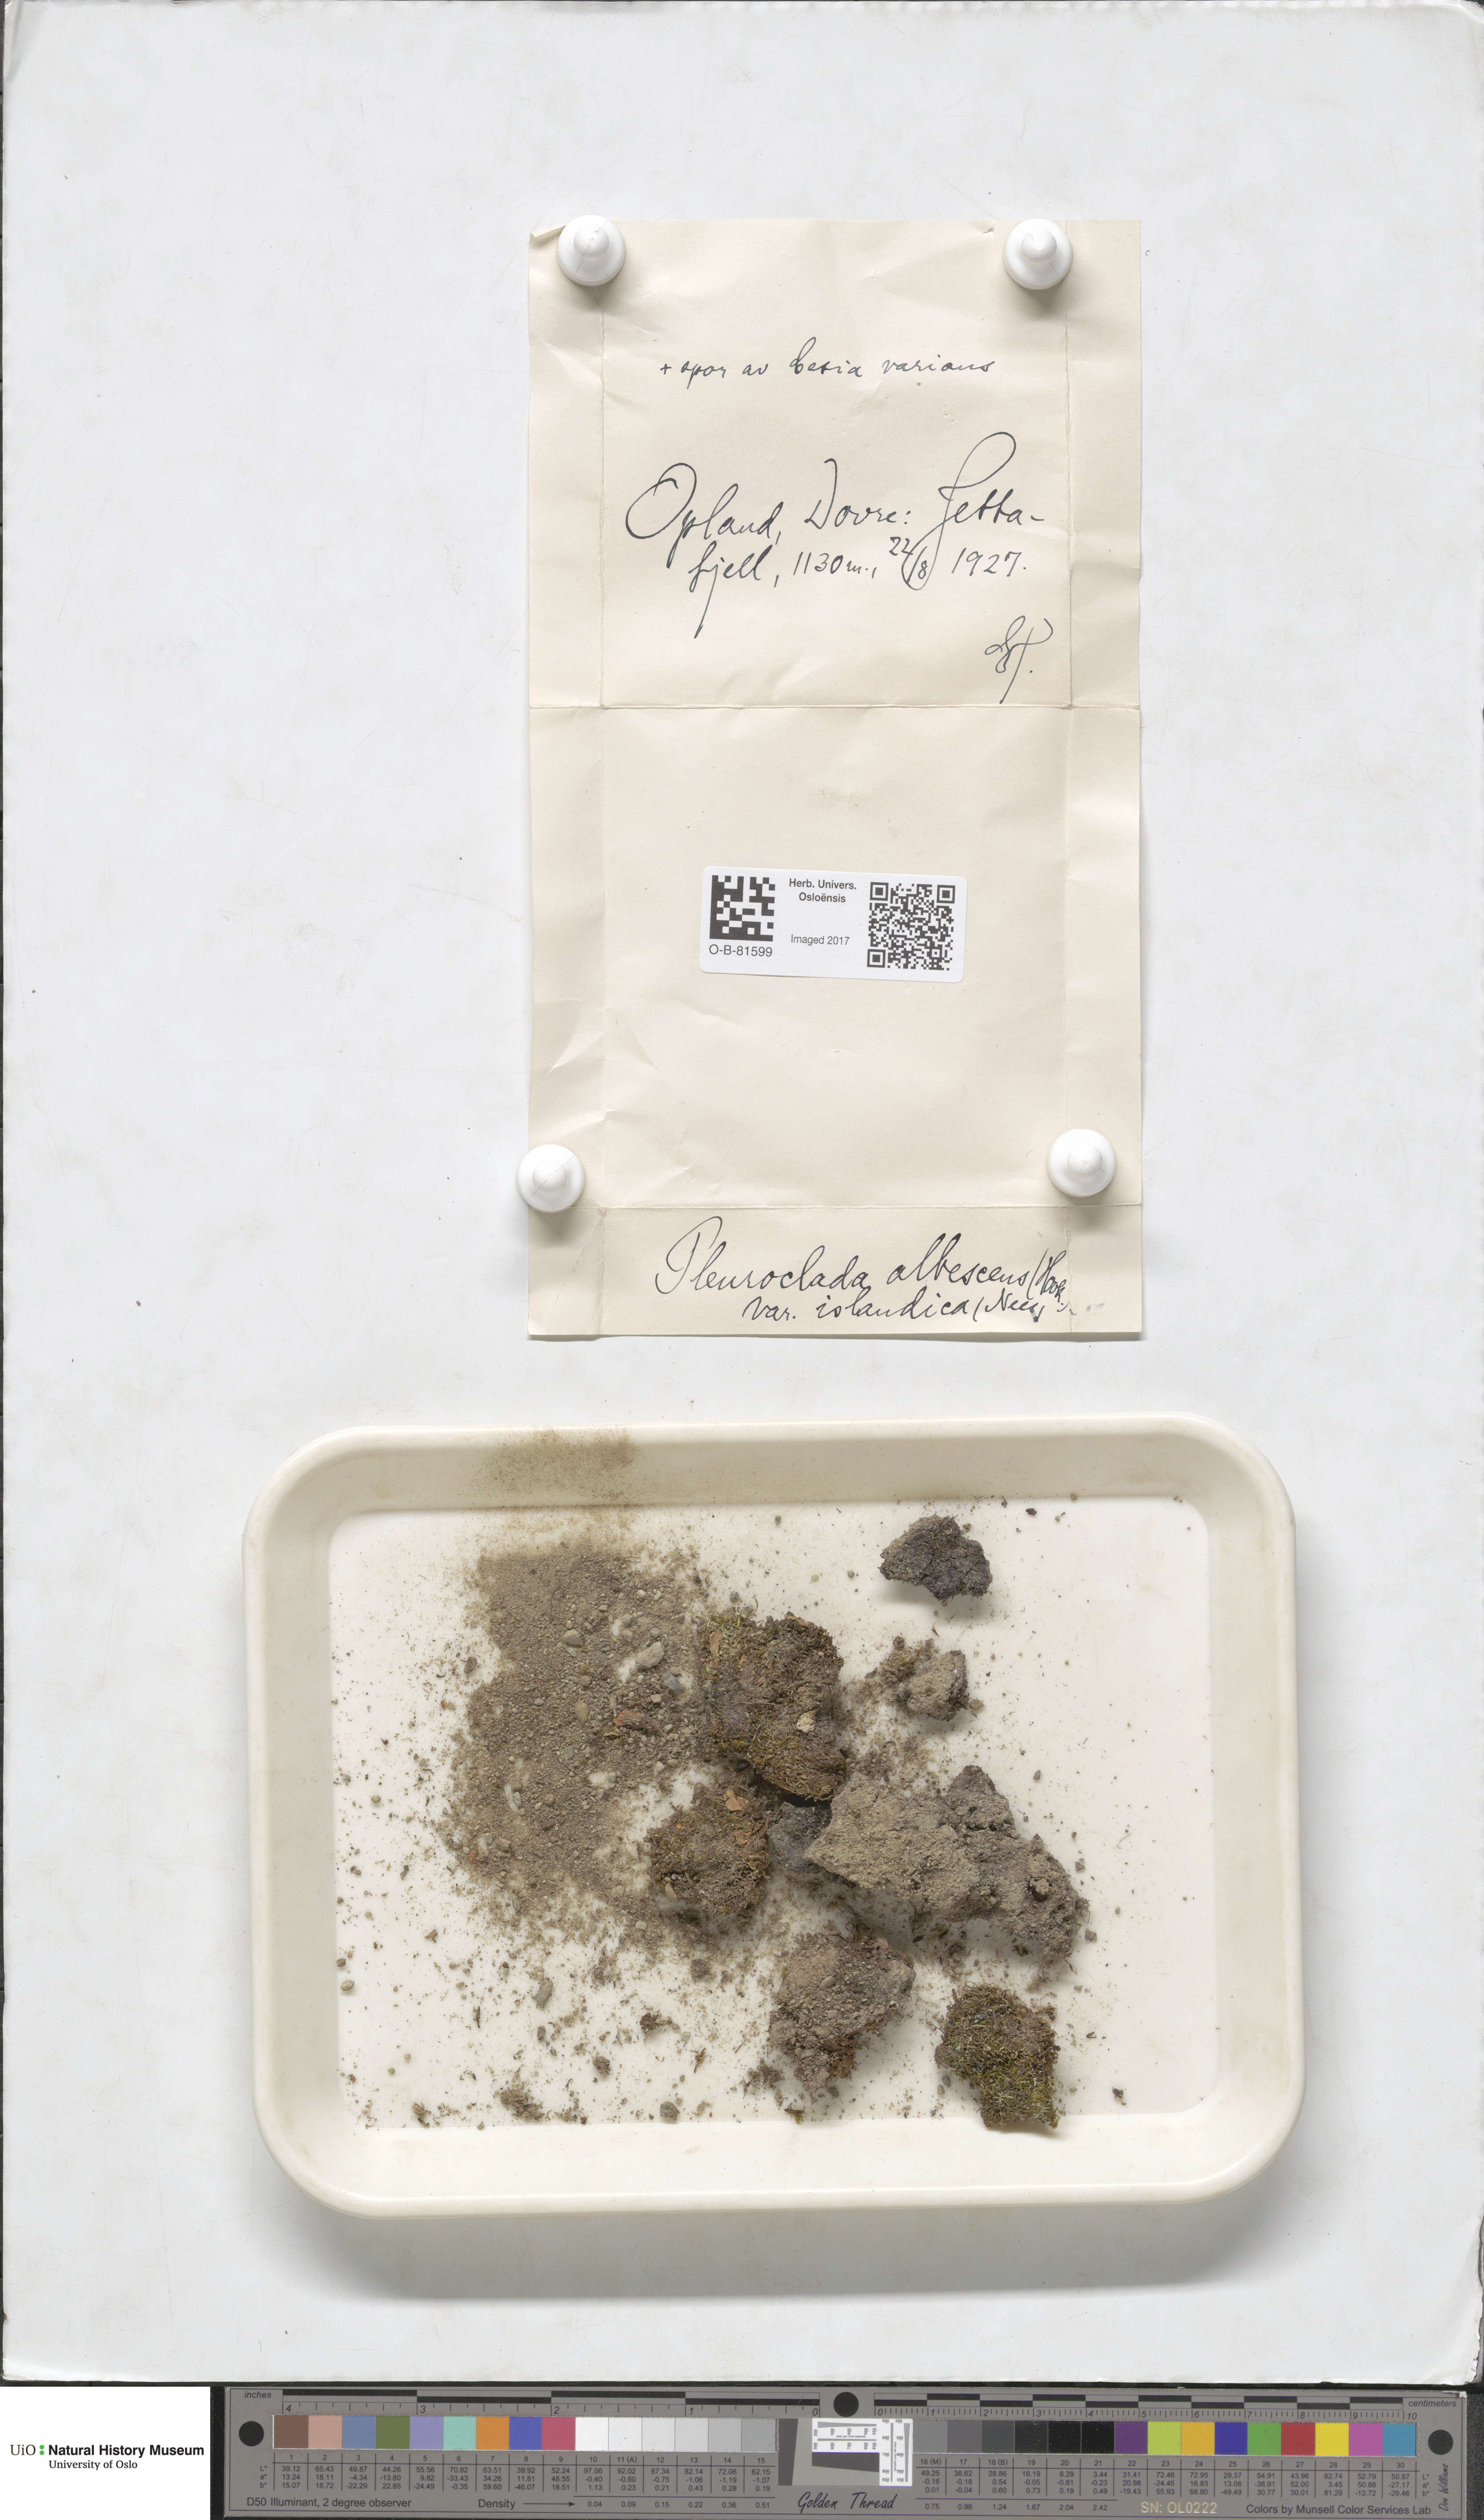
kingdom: Plantae
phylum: Marchantiophyta
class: Jungermanniopsida
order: Jungermanniales
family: Cephaloziaceae
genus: Fuscocephaloziopsis
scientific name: Fuscocephaloziopsis albescens
